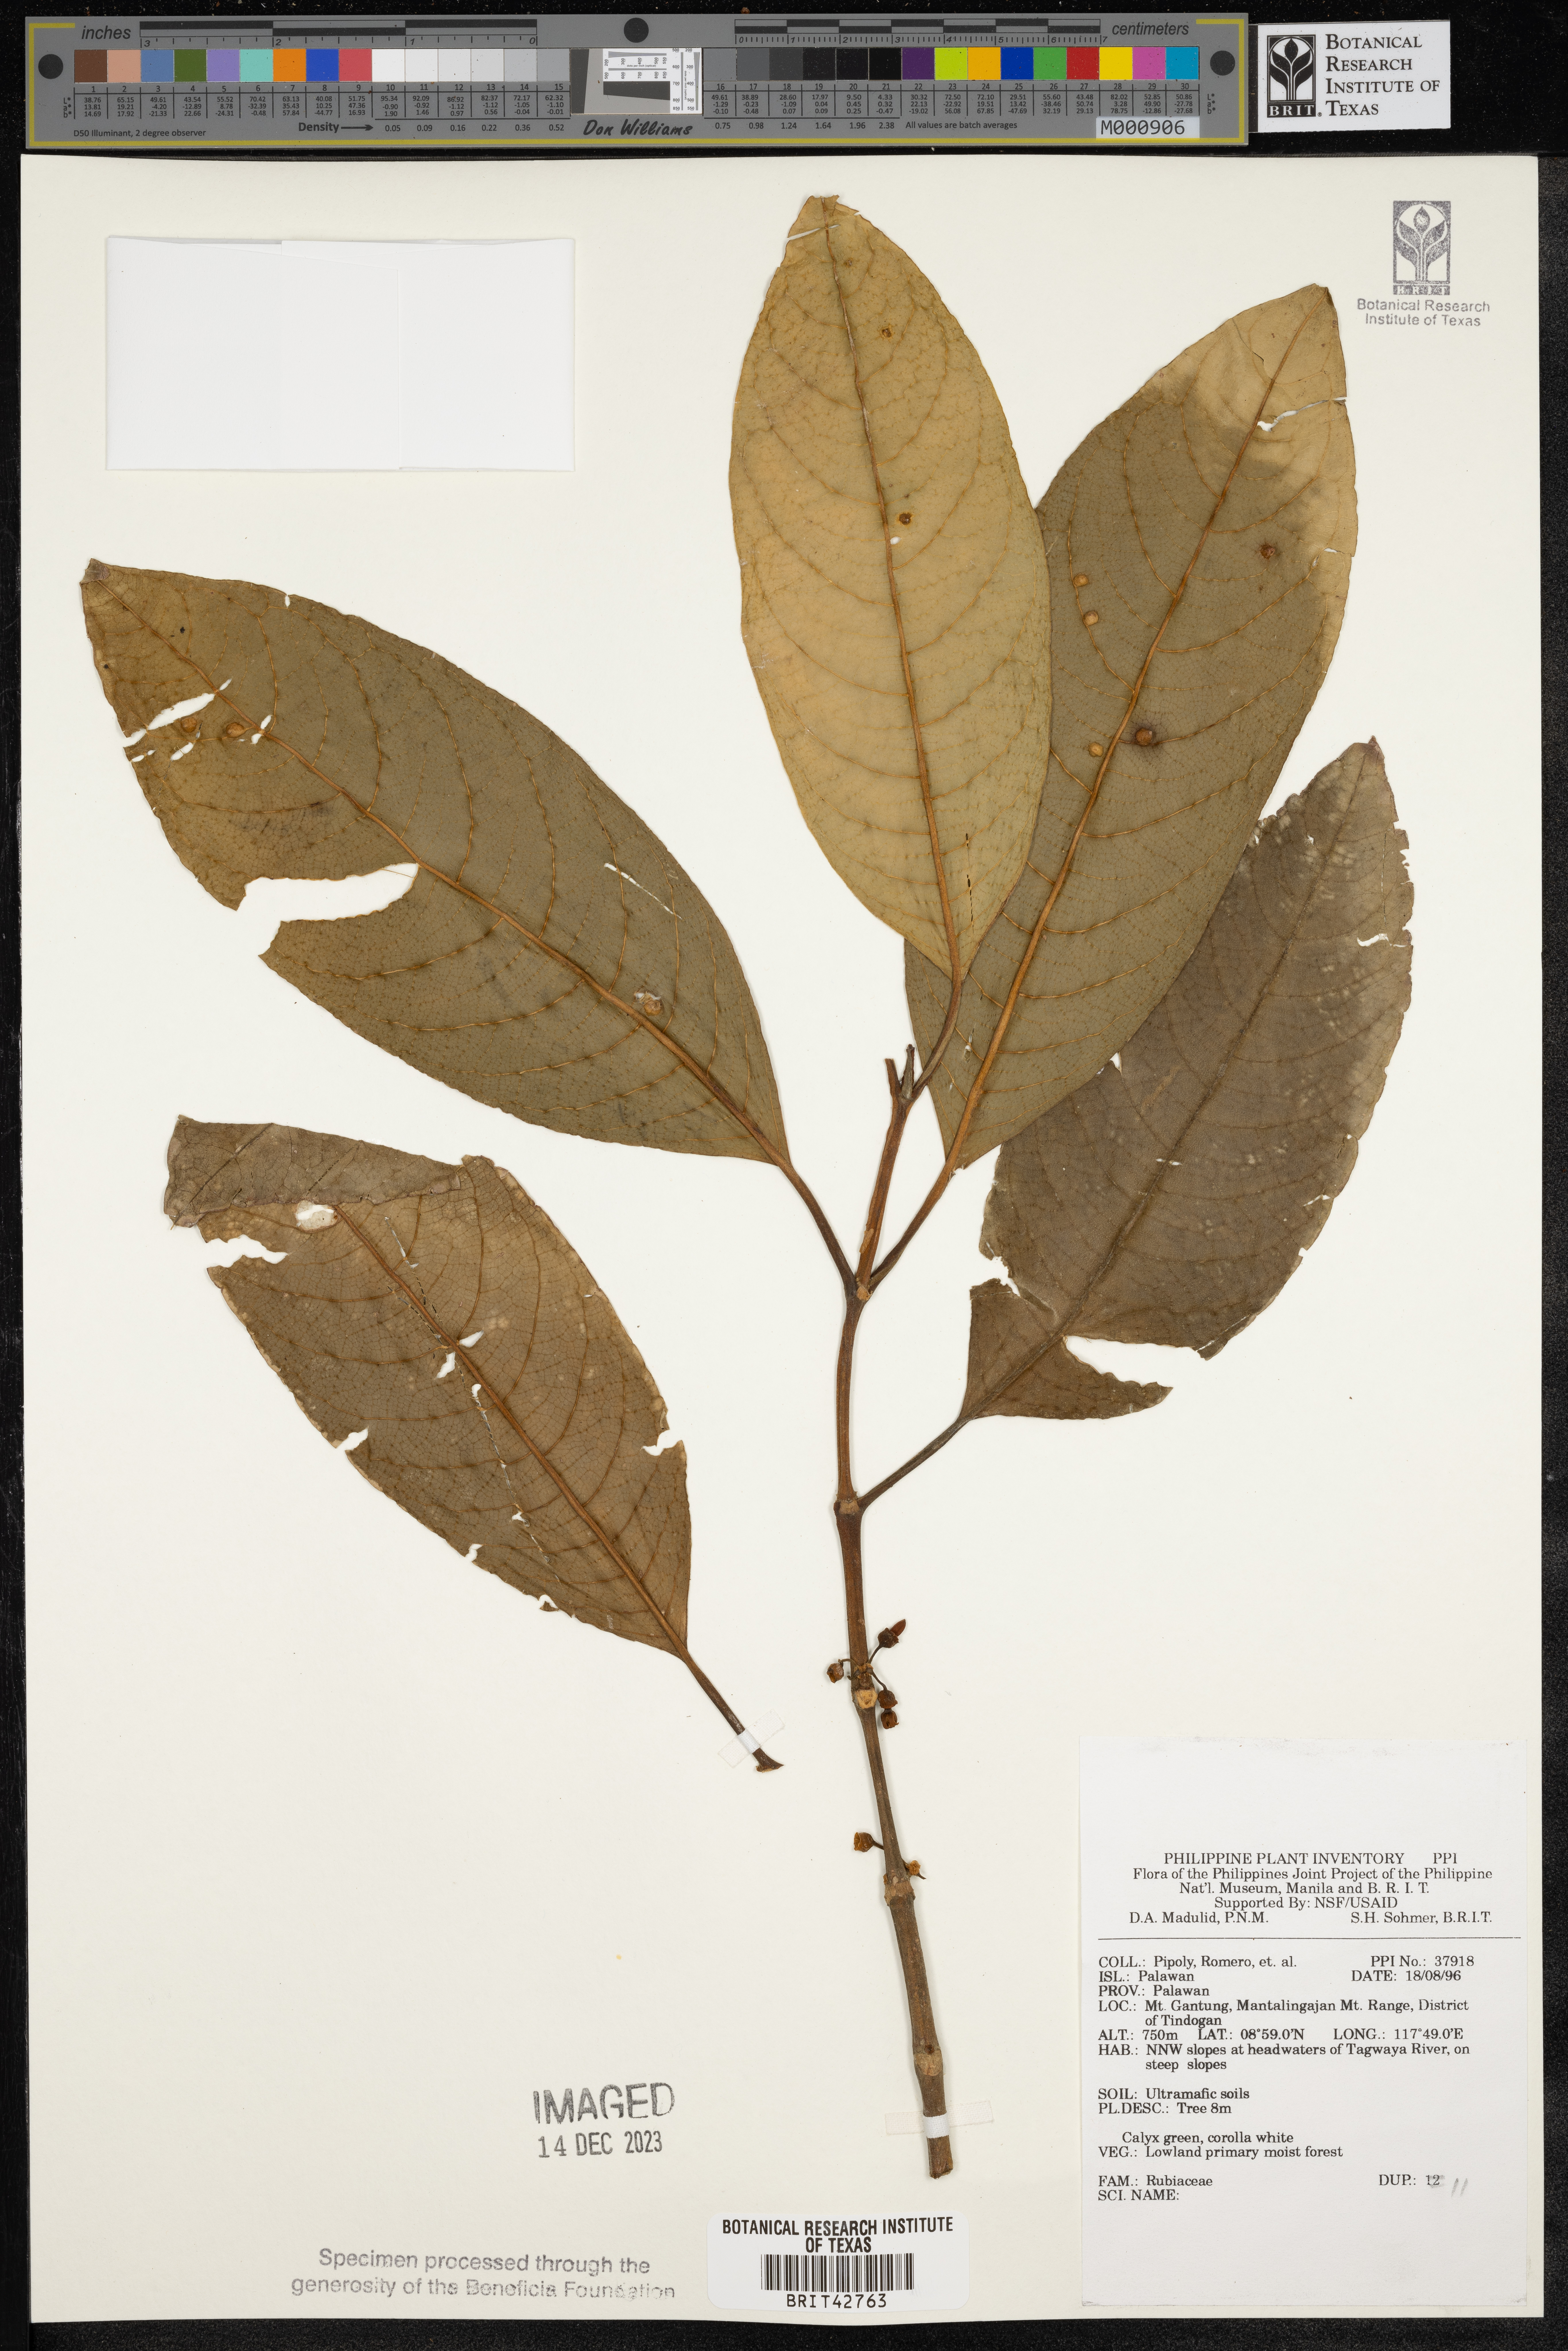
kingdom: Plantae
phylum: Tracheophyta
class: Magnoliopsida
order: Gentianales
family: Rubiaceae
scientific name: Rubiaceae
